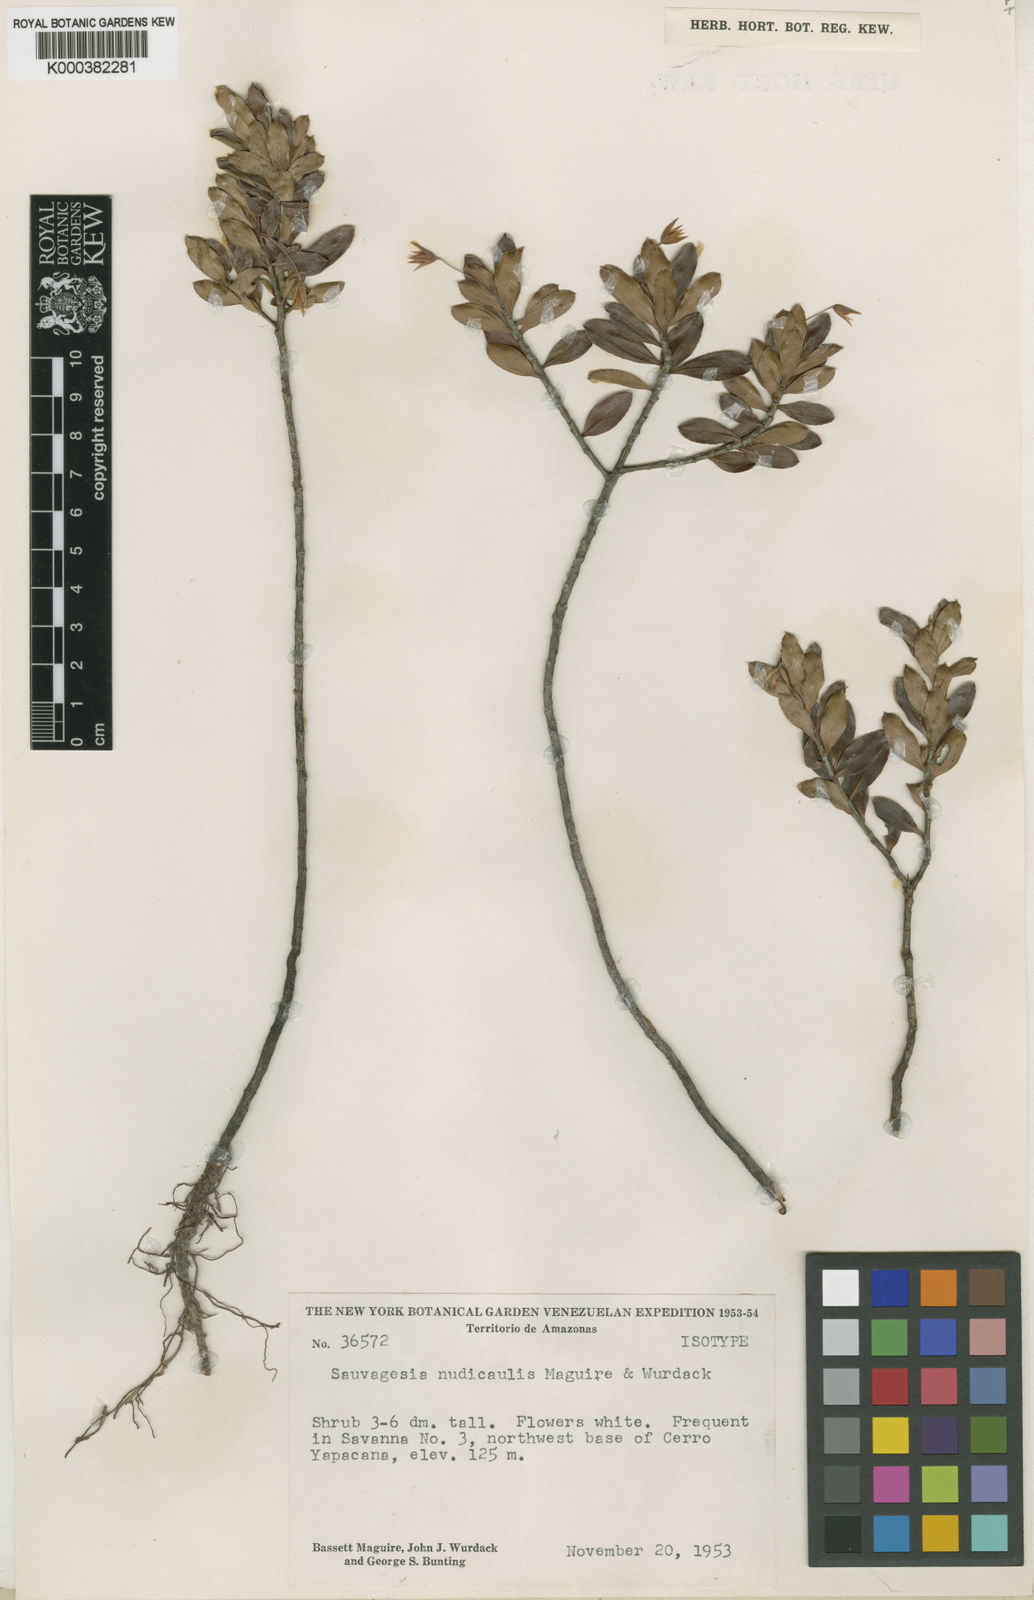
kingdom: Plantae
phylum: Tracheophyta
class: Magnoliopsida
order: Malpighiales
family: Ochnaceae
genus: Sauvagesia
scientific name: Sauvagesia nudicaulis
